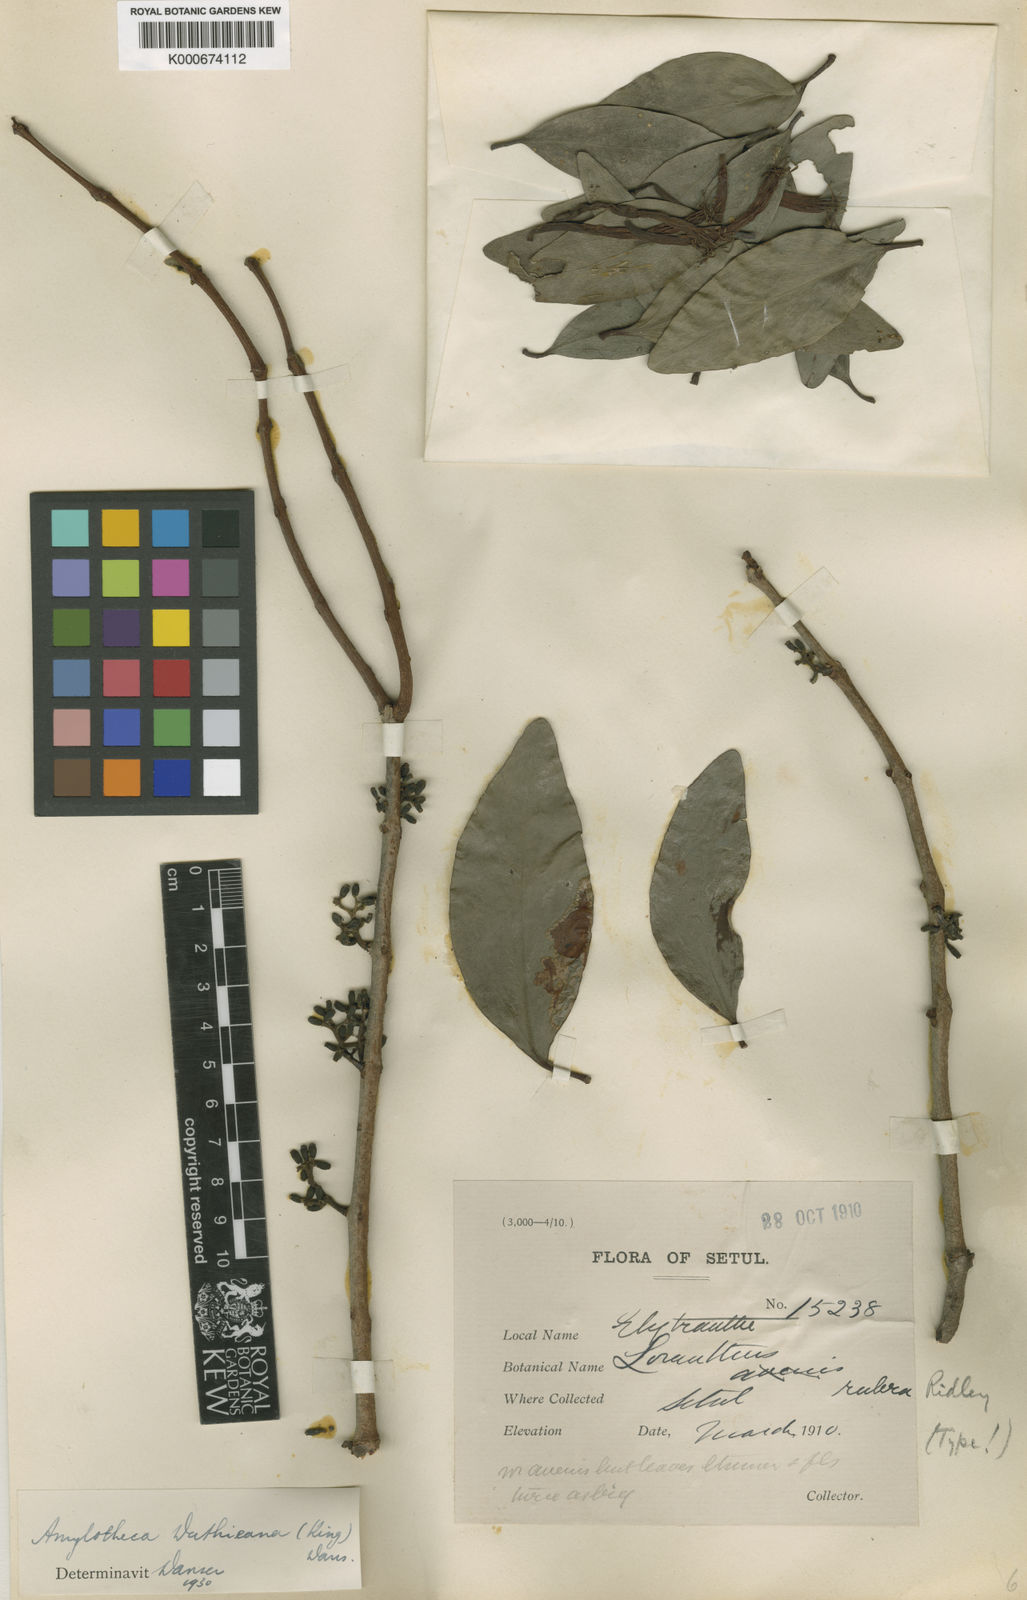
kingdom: Plantae
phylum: Tracheophyta
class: Magnoliopsida
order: Santalales
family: Loranthaceae
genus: Amylotheca
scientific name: Amylotheca duthieana
